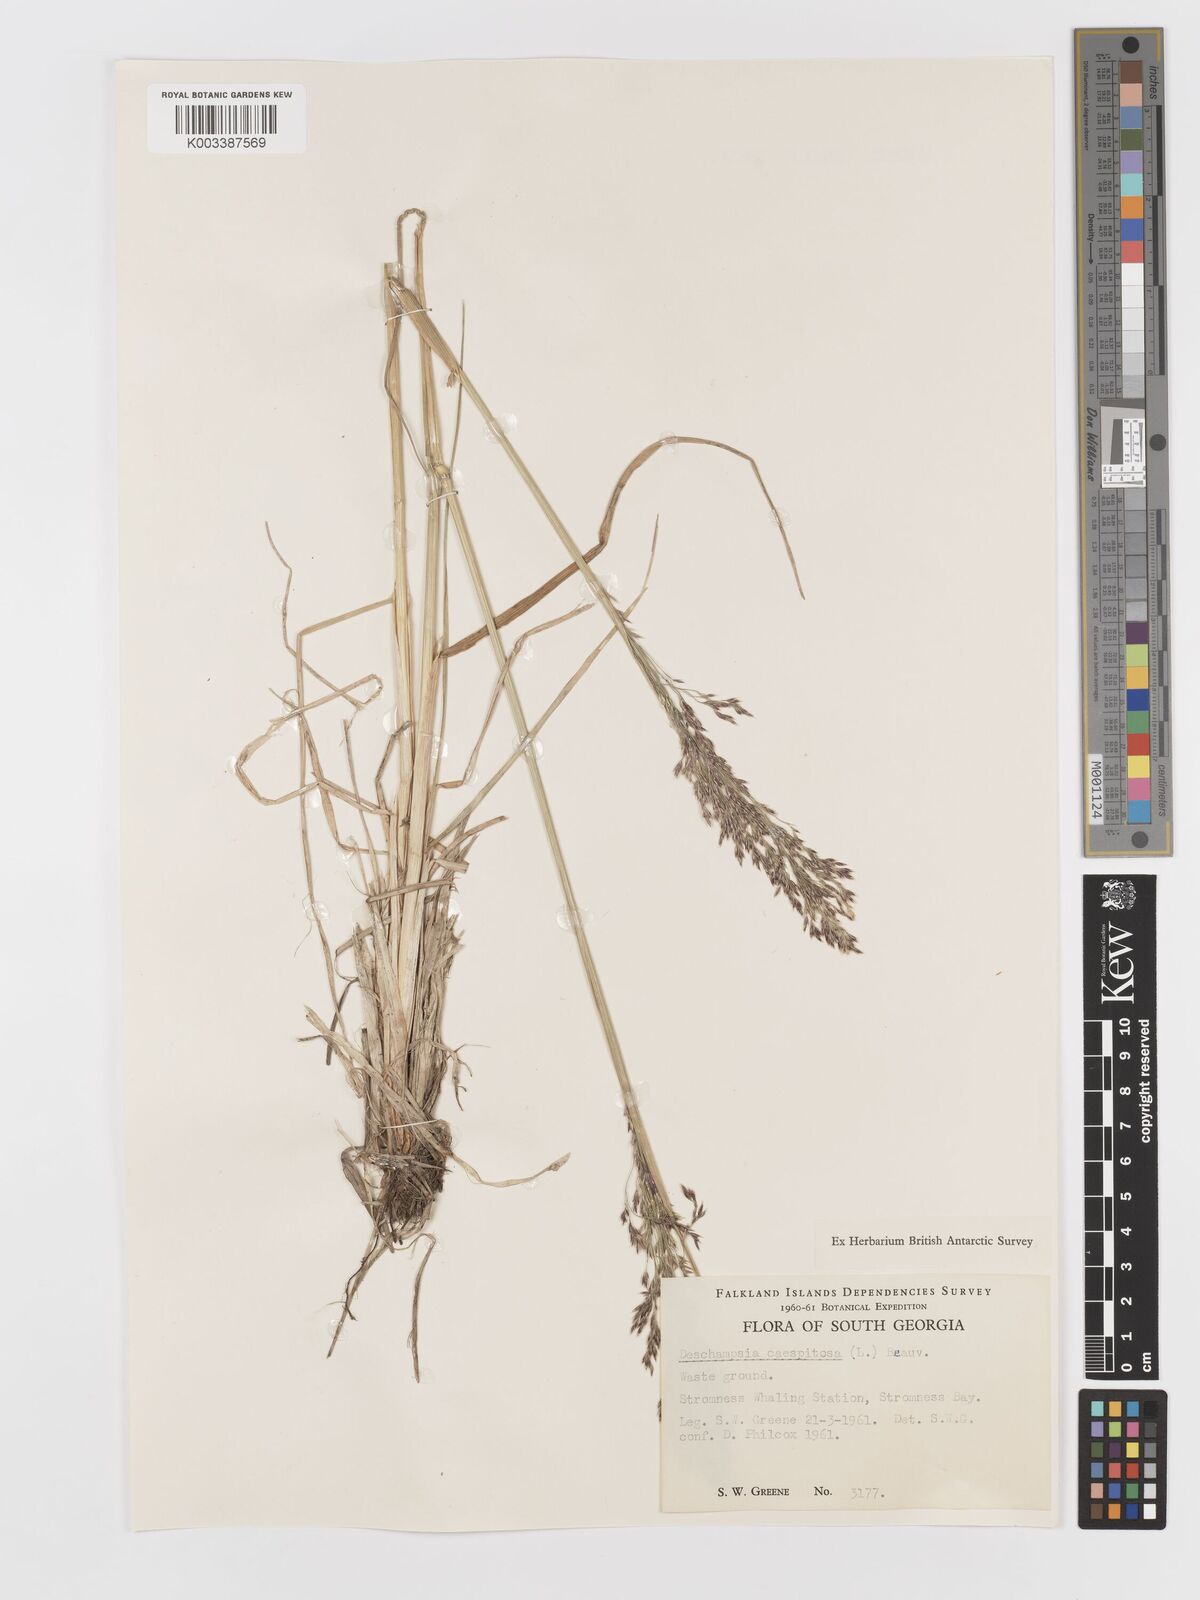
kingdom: Plantae
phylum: Tracheophyta
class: Liliopsida
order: Poales
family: Poaceae
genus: Deschampsia
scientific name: Deschampsia cespitosa
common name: Tufted hair-grass
